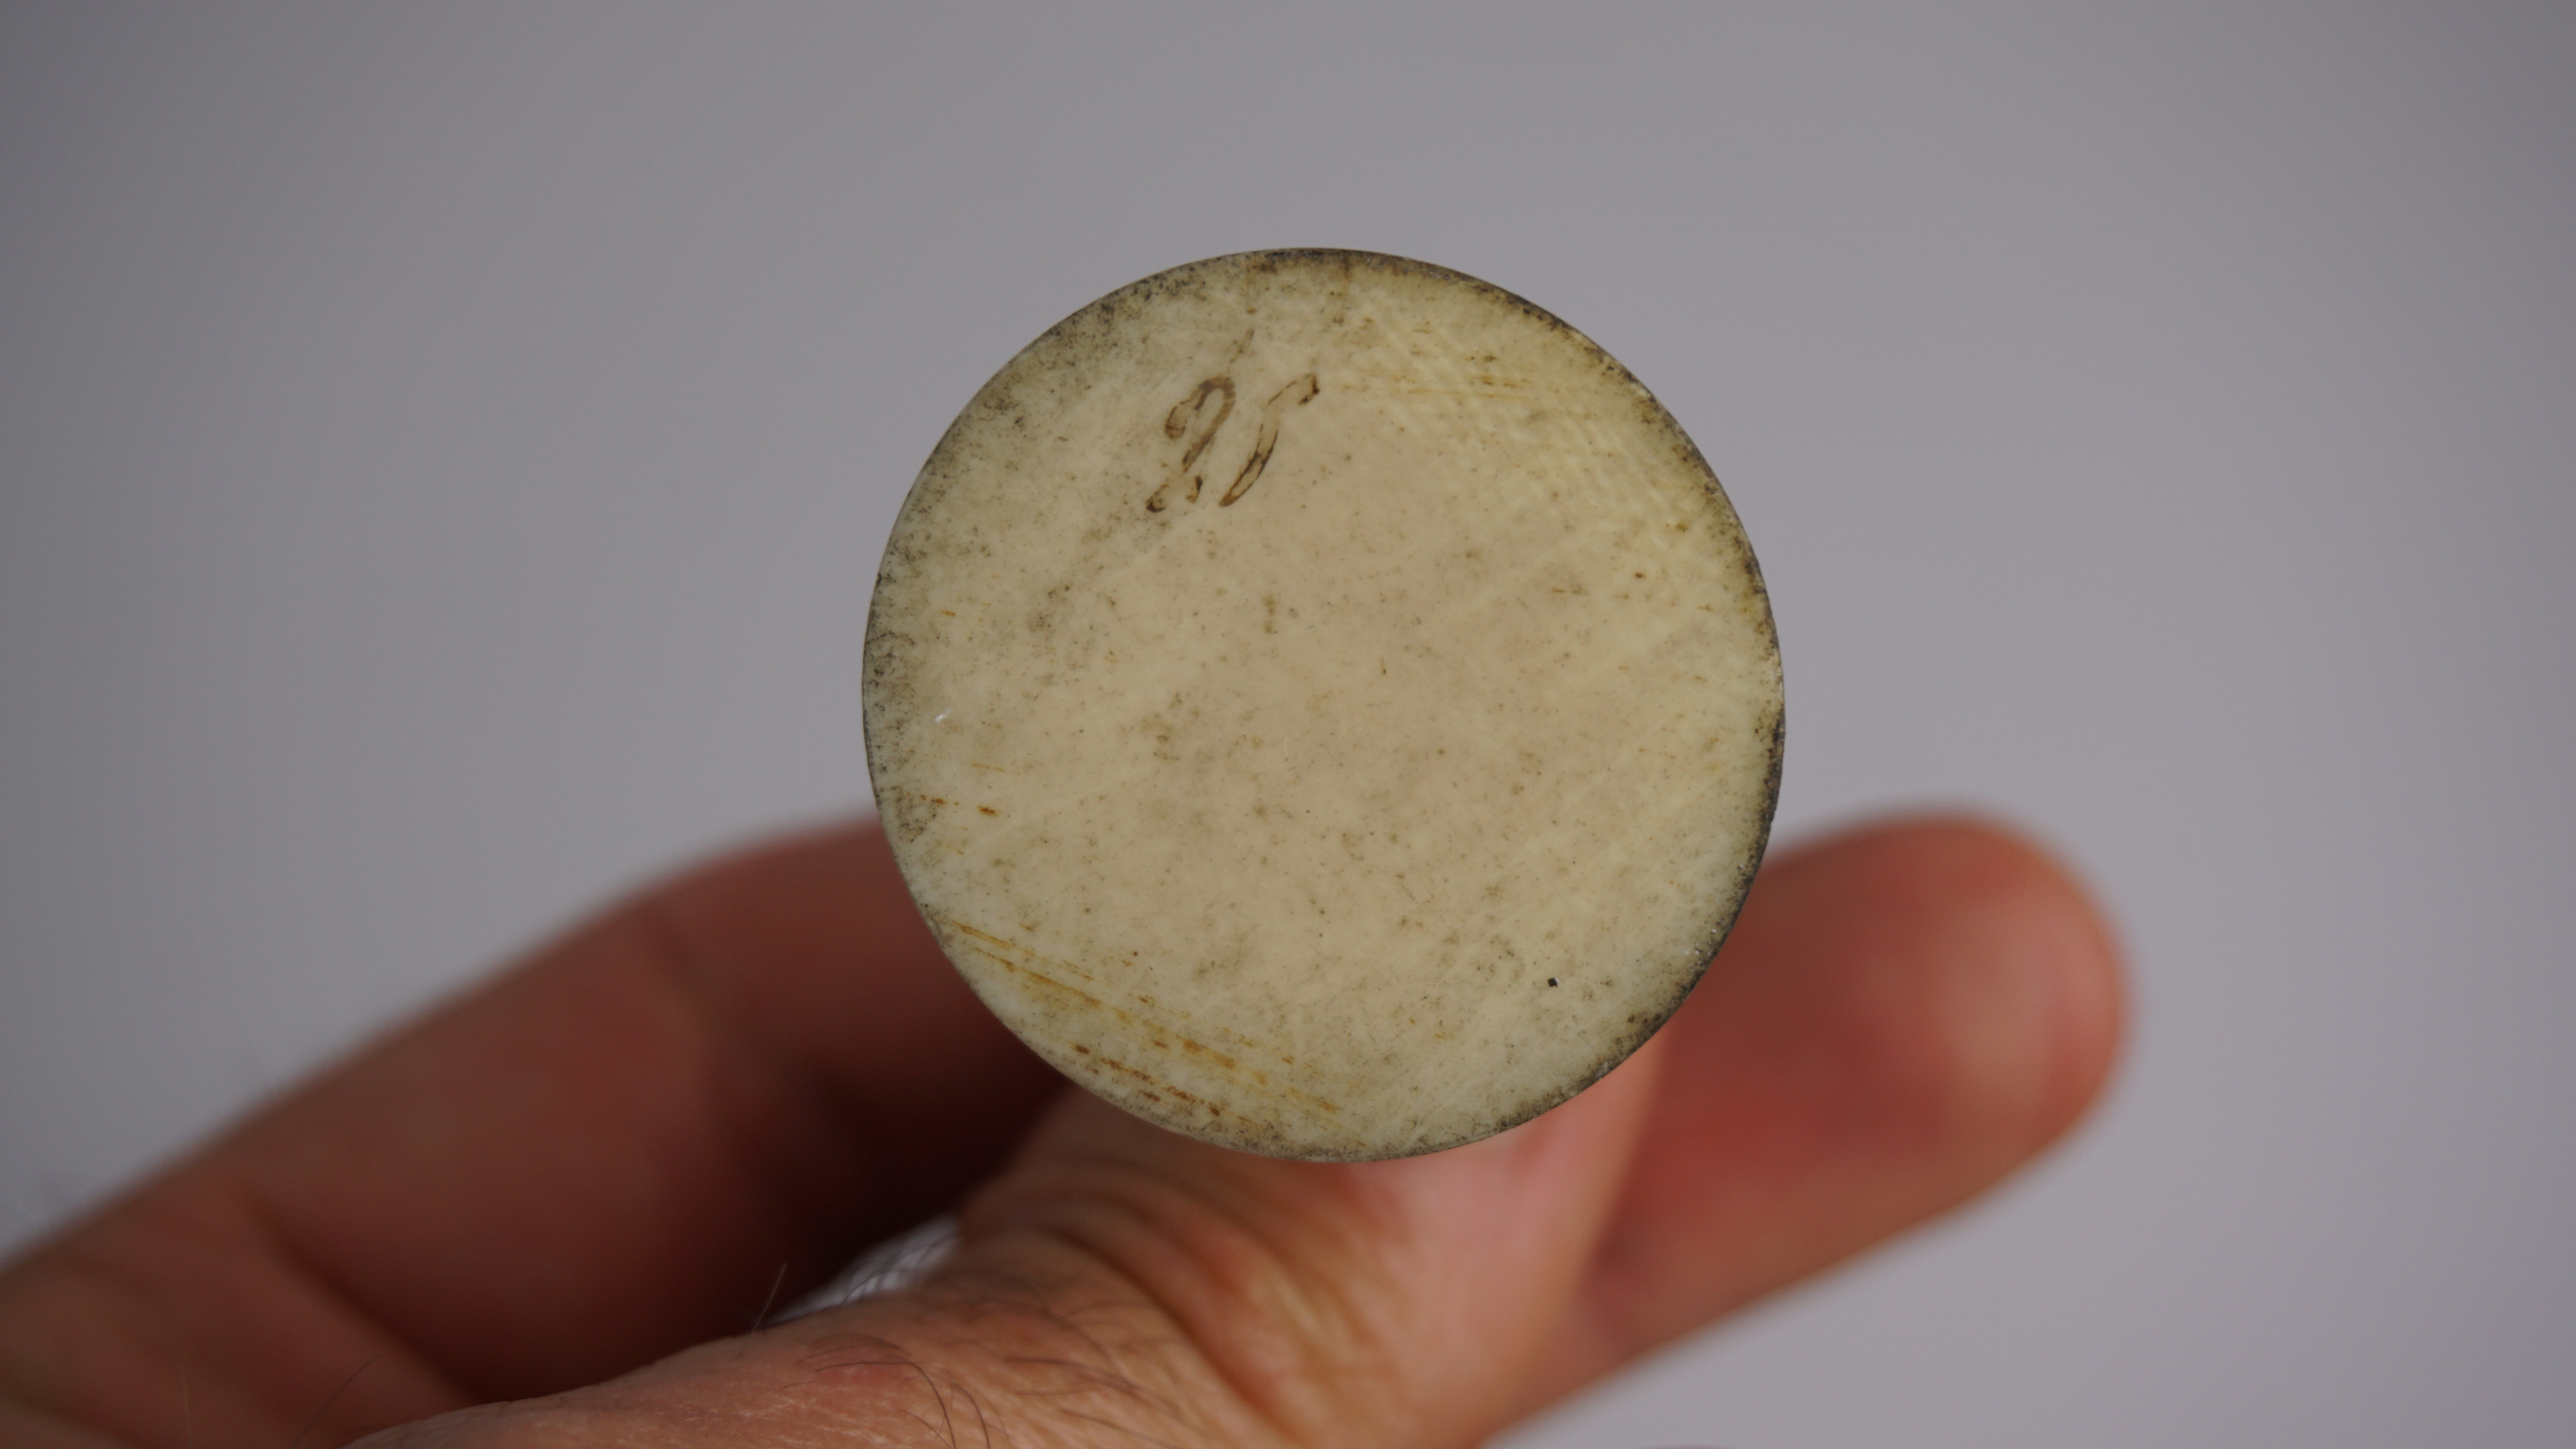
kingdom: Animalia
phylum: Chordata
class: Aves
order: Apodiformes
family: Trochilidae
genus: Topaza
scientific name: Topaza pella
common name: Crimson topaz
